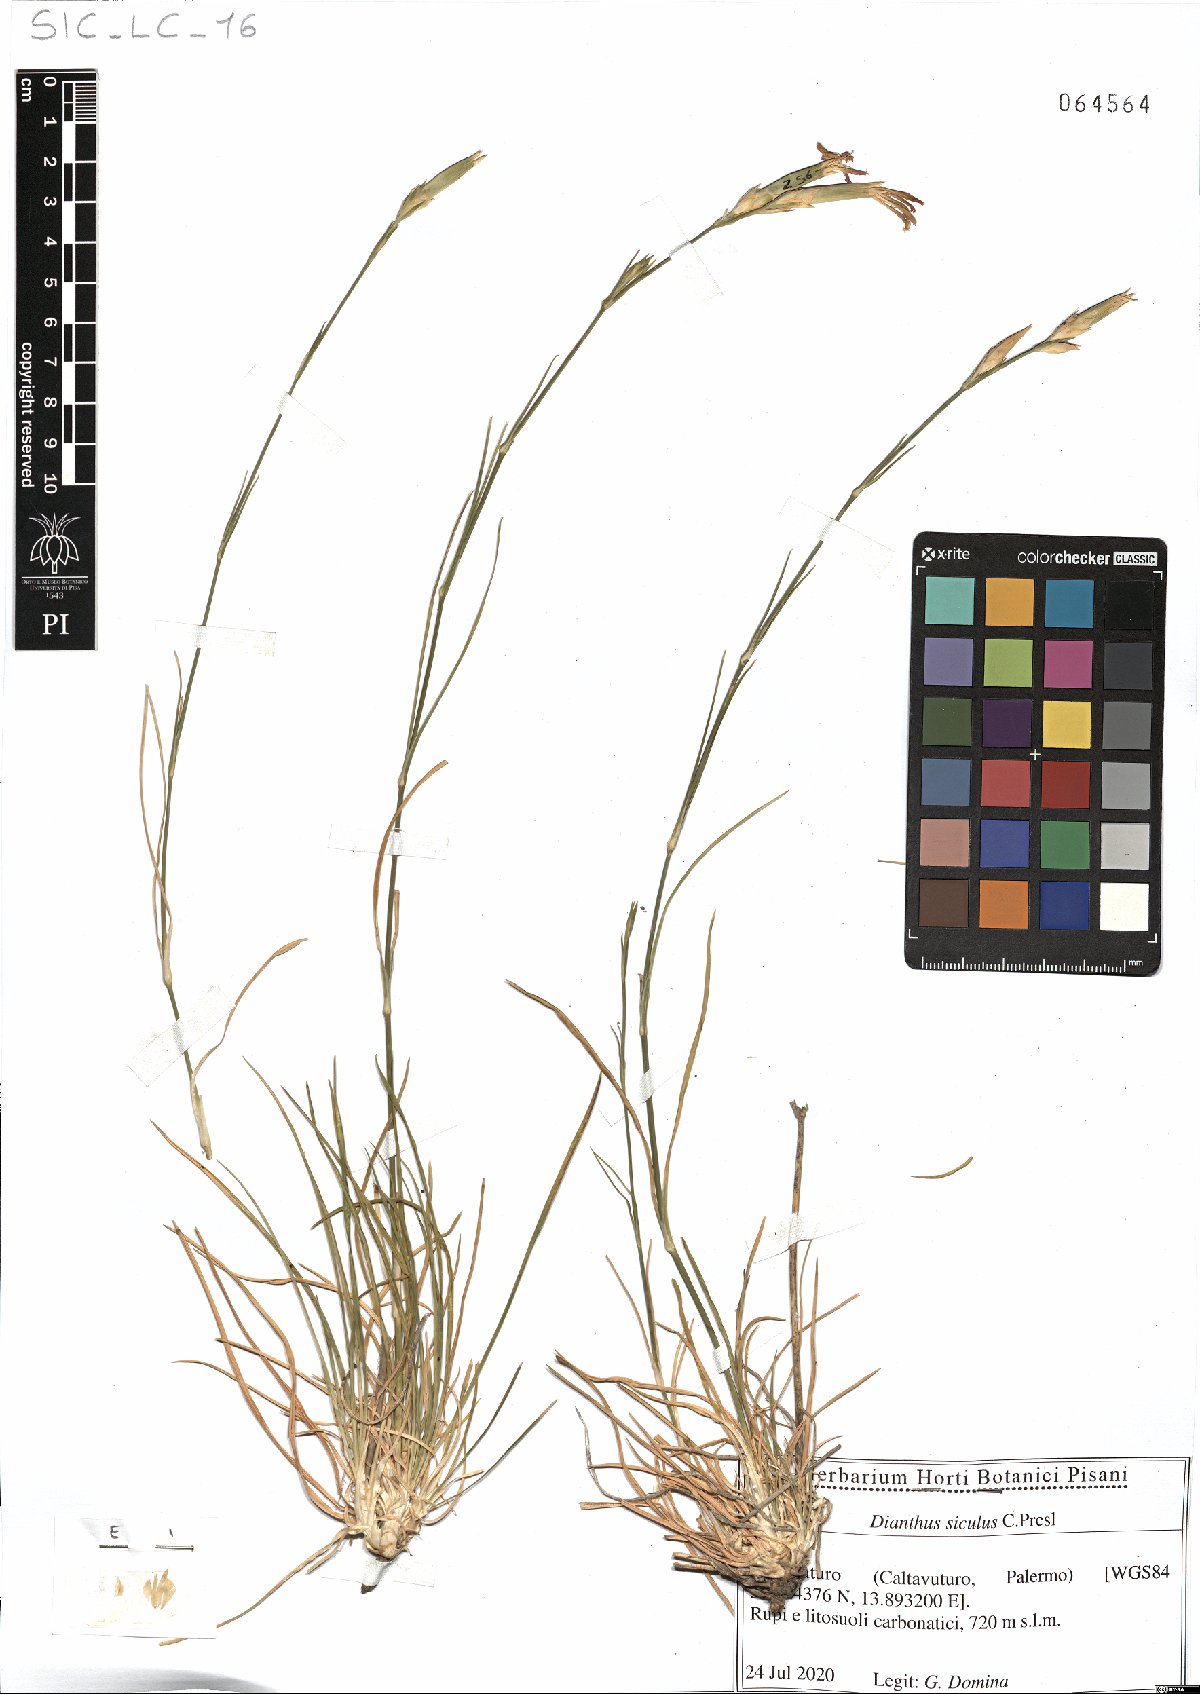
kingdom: Plantae
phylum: Tracheophyta
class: Magnoliopsida
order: Caryophyllales
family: Caryophyllaceae
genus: Dianthus
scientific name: Dianthus siculus
